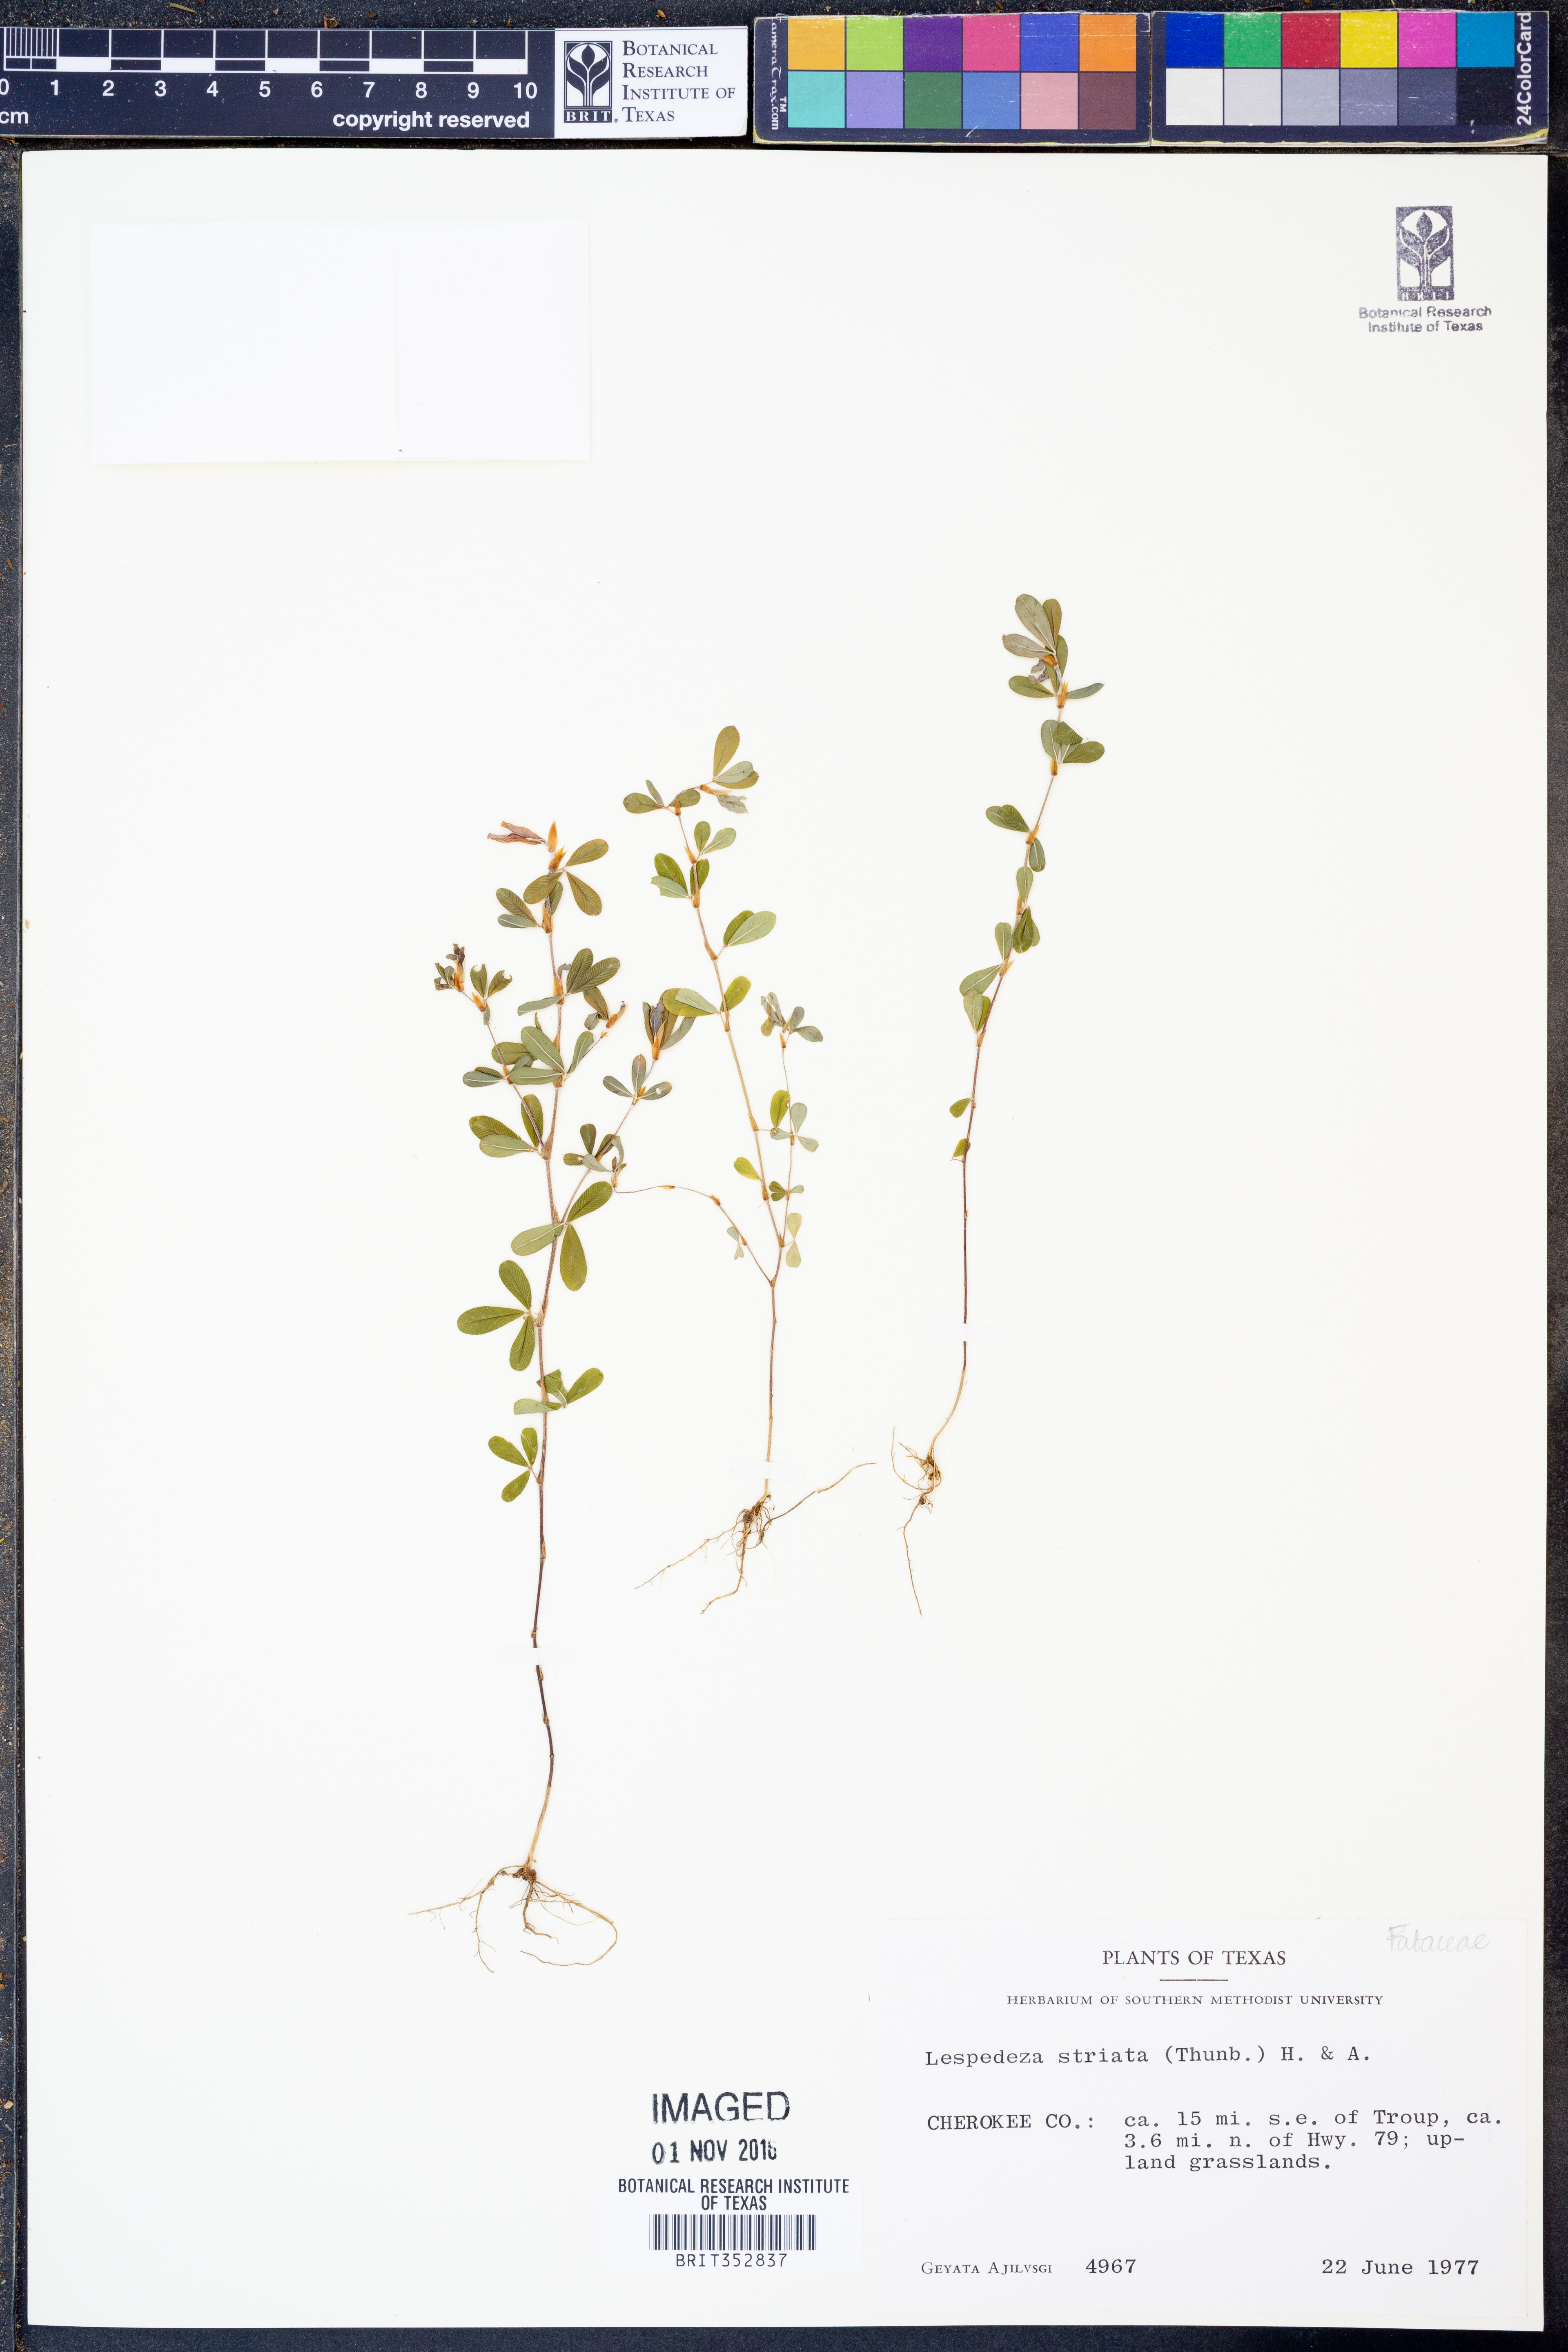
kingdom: Plantae
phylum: Tracheophyta
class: Magnoliopsida
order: Fabales
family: Fabaceae
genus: Kummerowia
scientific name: Kummerowia striata
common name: Japanese clover
